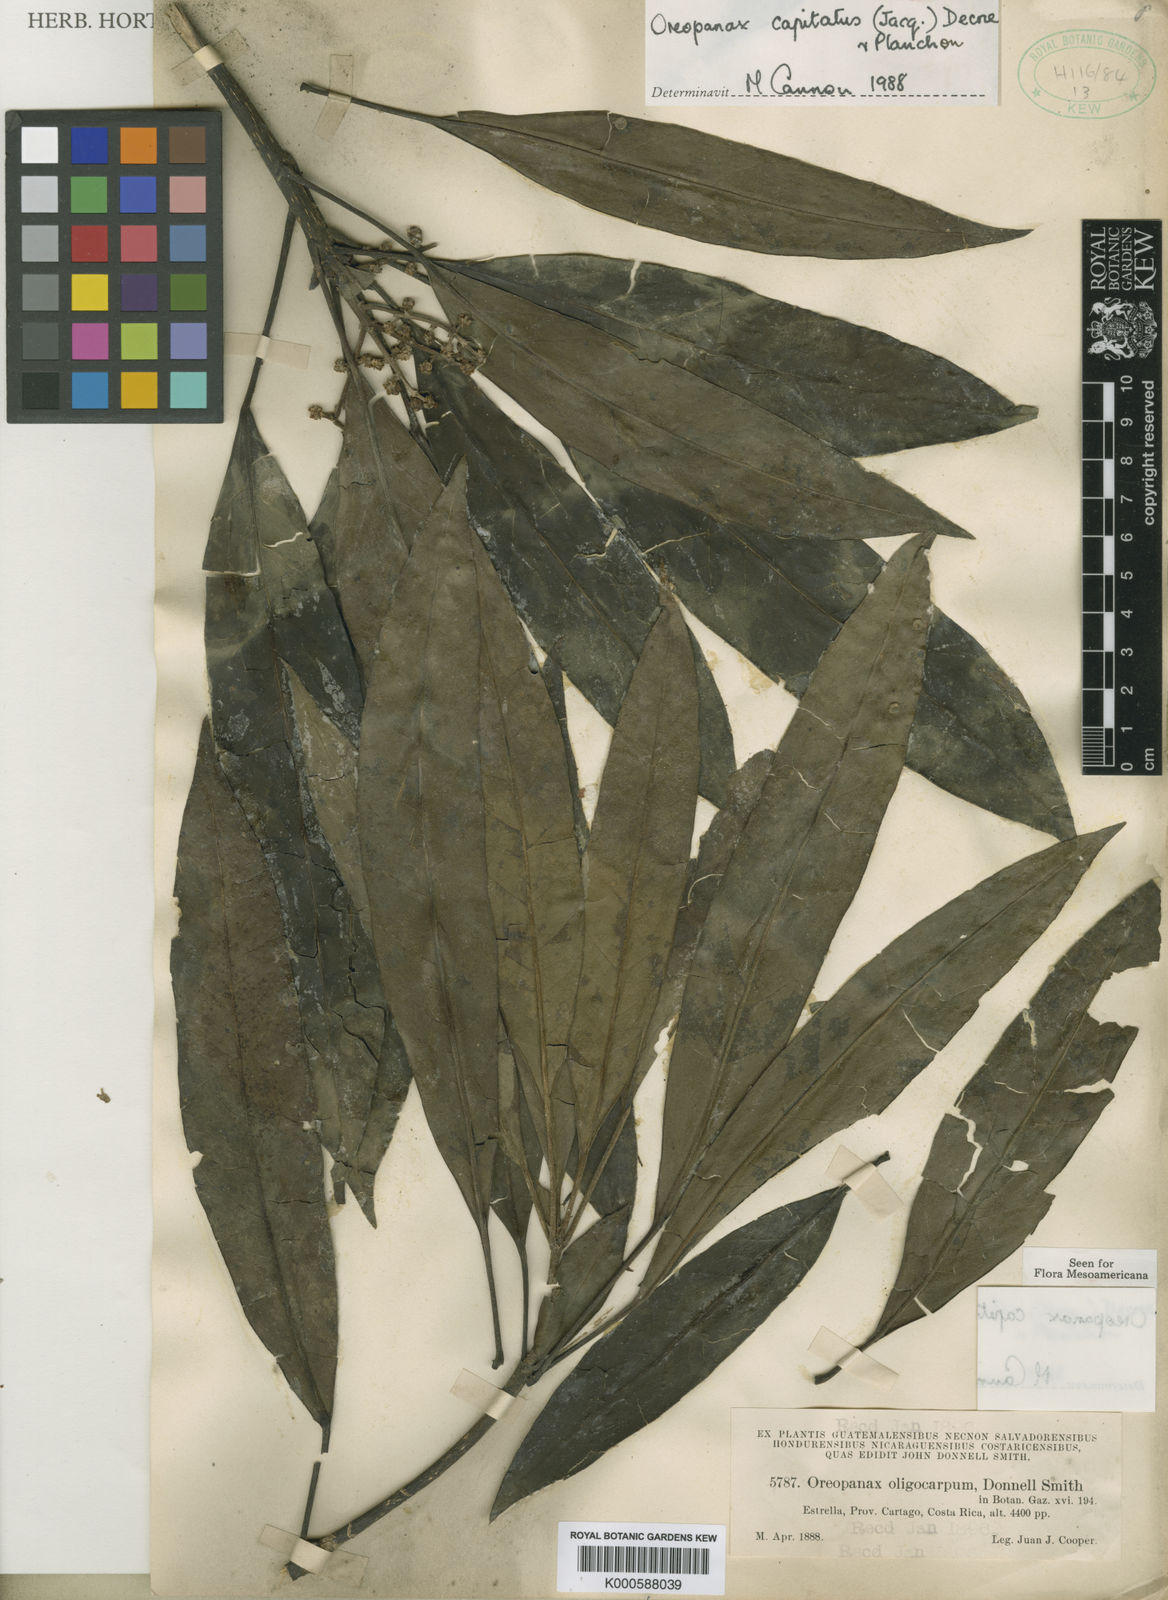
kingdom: Plantae
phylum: Tracheophyta
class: Magnoliopsida
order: Apiales
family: Araliaceae
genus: Oreopanax
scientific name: Oreopanax capitatus
